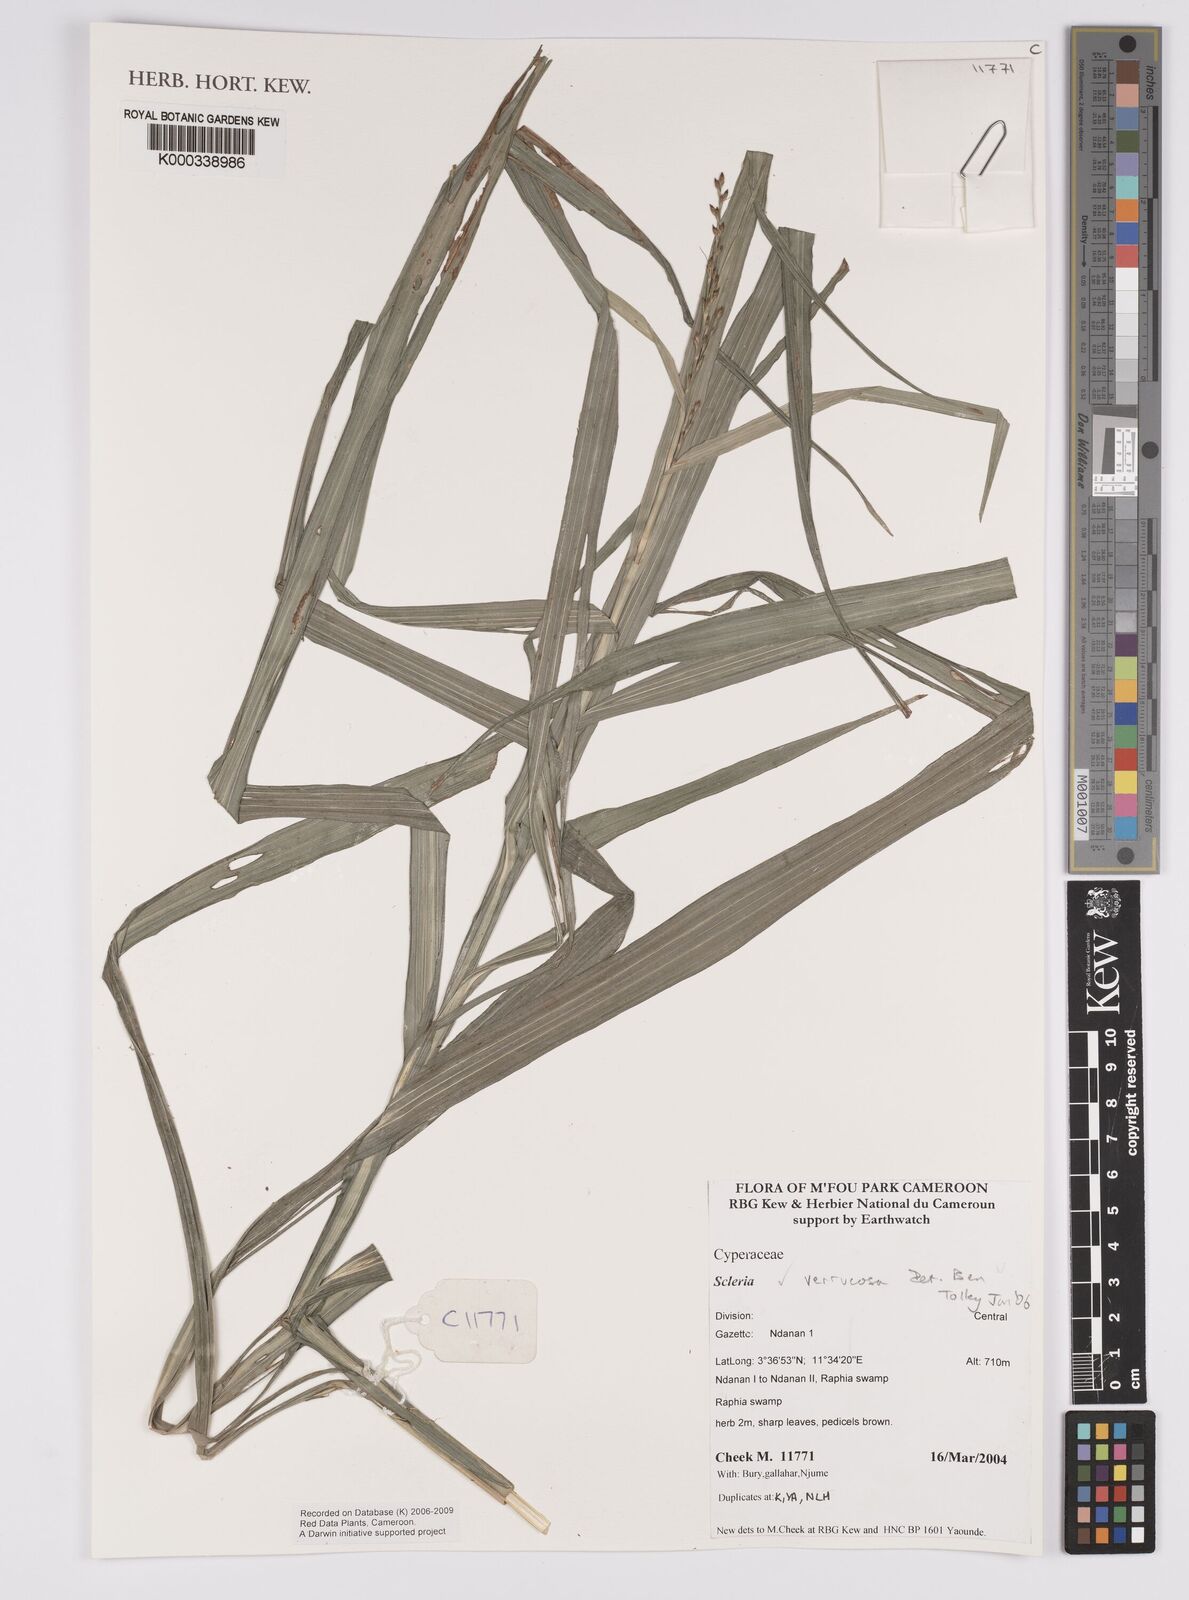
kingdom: Plantae
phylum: Tracheophyta
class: Liliopsida
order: Poales
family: Cyperaceae
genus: Scleria
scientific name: Scleria verrucosa
